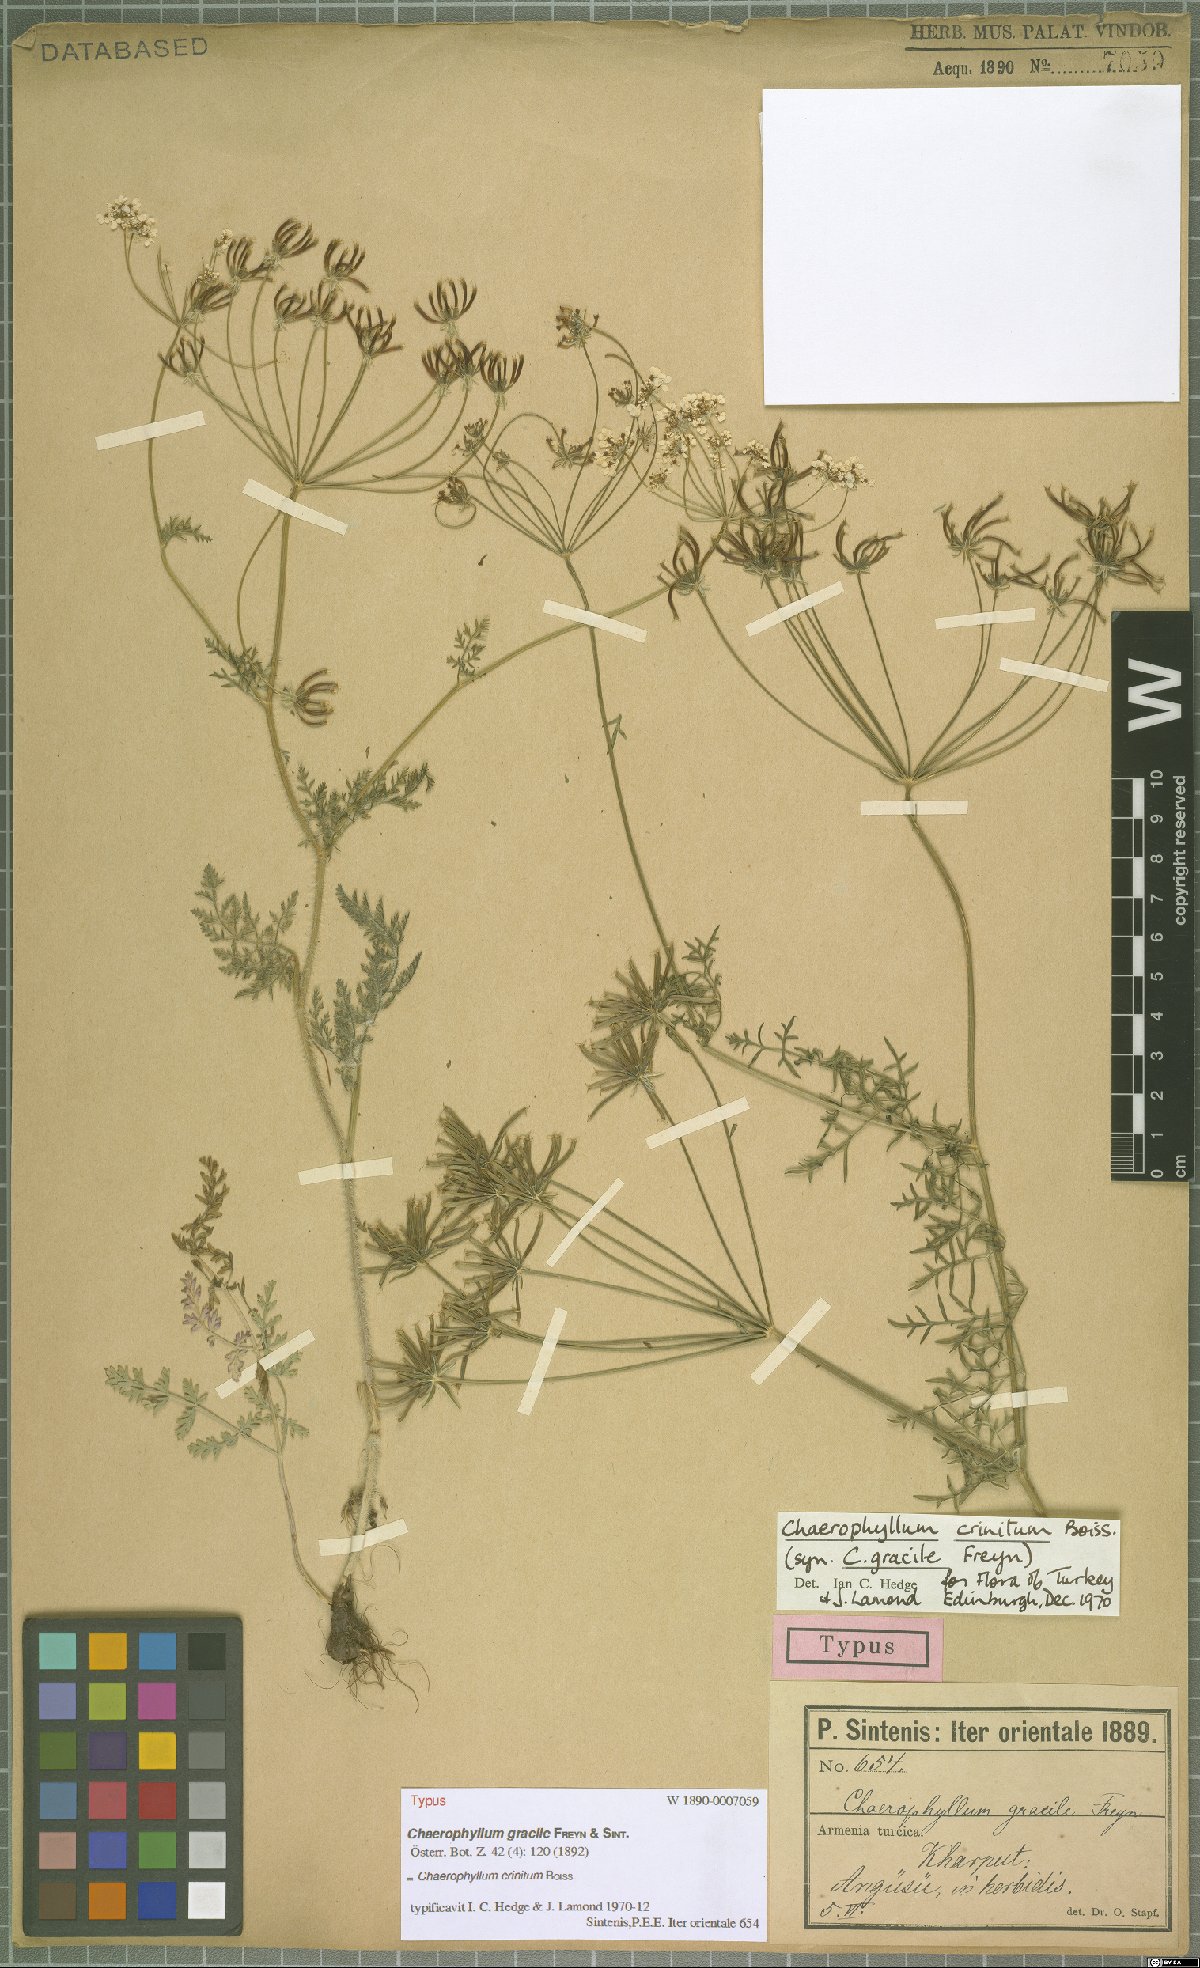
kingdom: Plantae
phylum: Tracheophyta
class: Magnoliopsida
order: Apiales
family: Apiaceae
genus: Chaerophyllum
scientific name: Chaerophyllum crinitum
